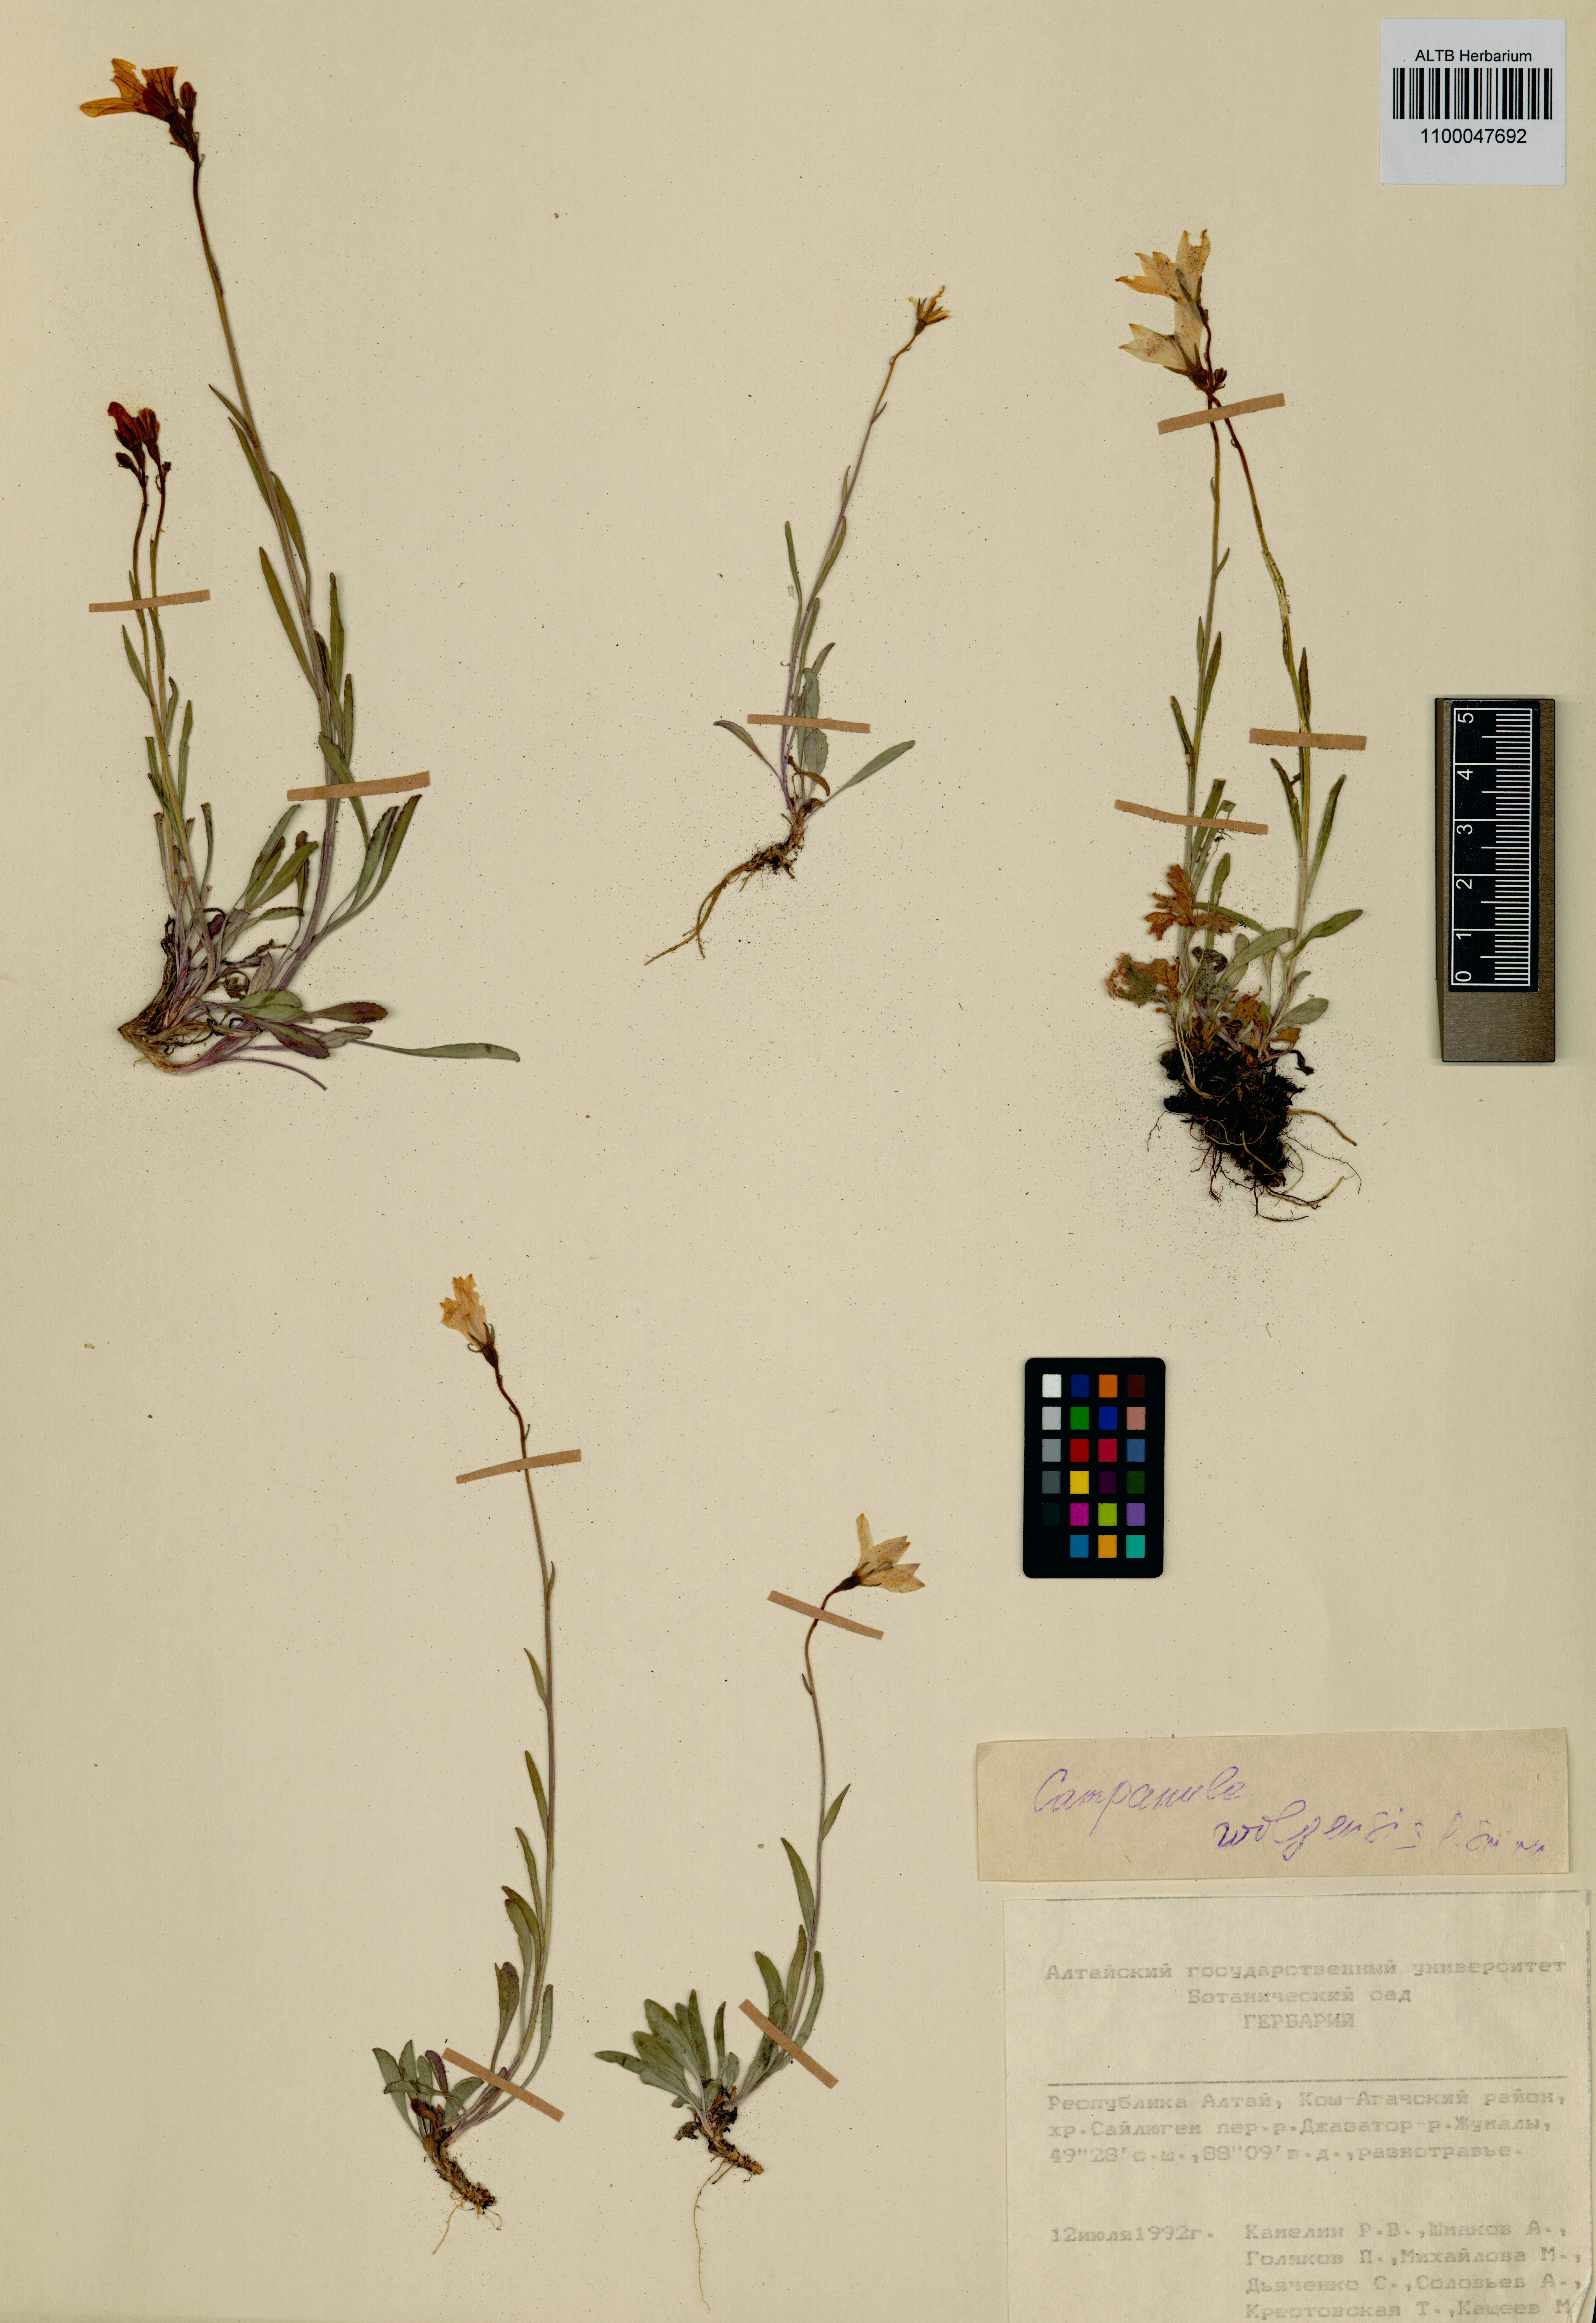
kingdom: Plantae
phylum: Tracheophyta
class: Magnoliopsida
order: Asterales
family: Campanulaceae
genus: Campanula
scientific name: Campanula stevenii
